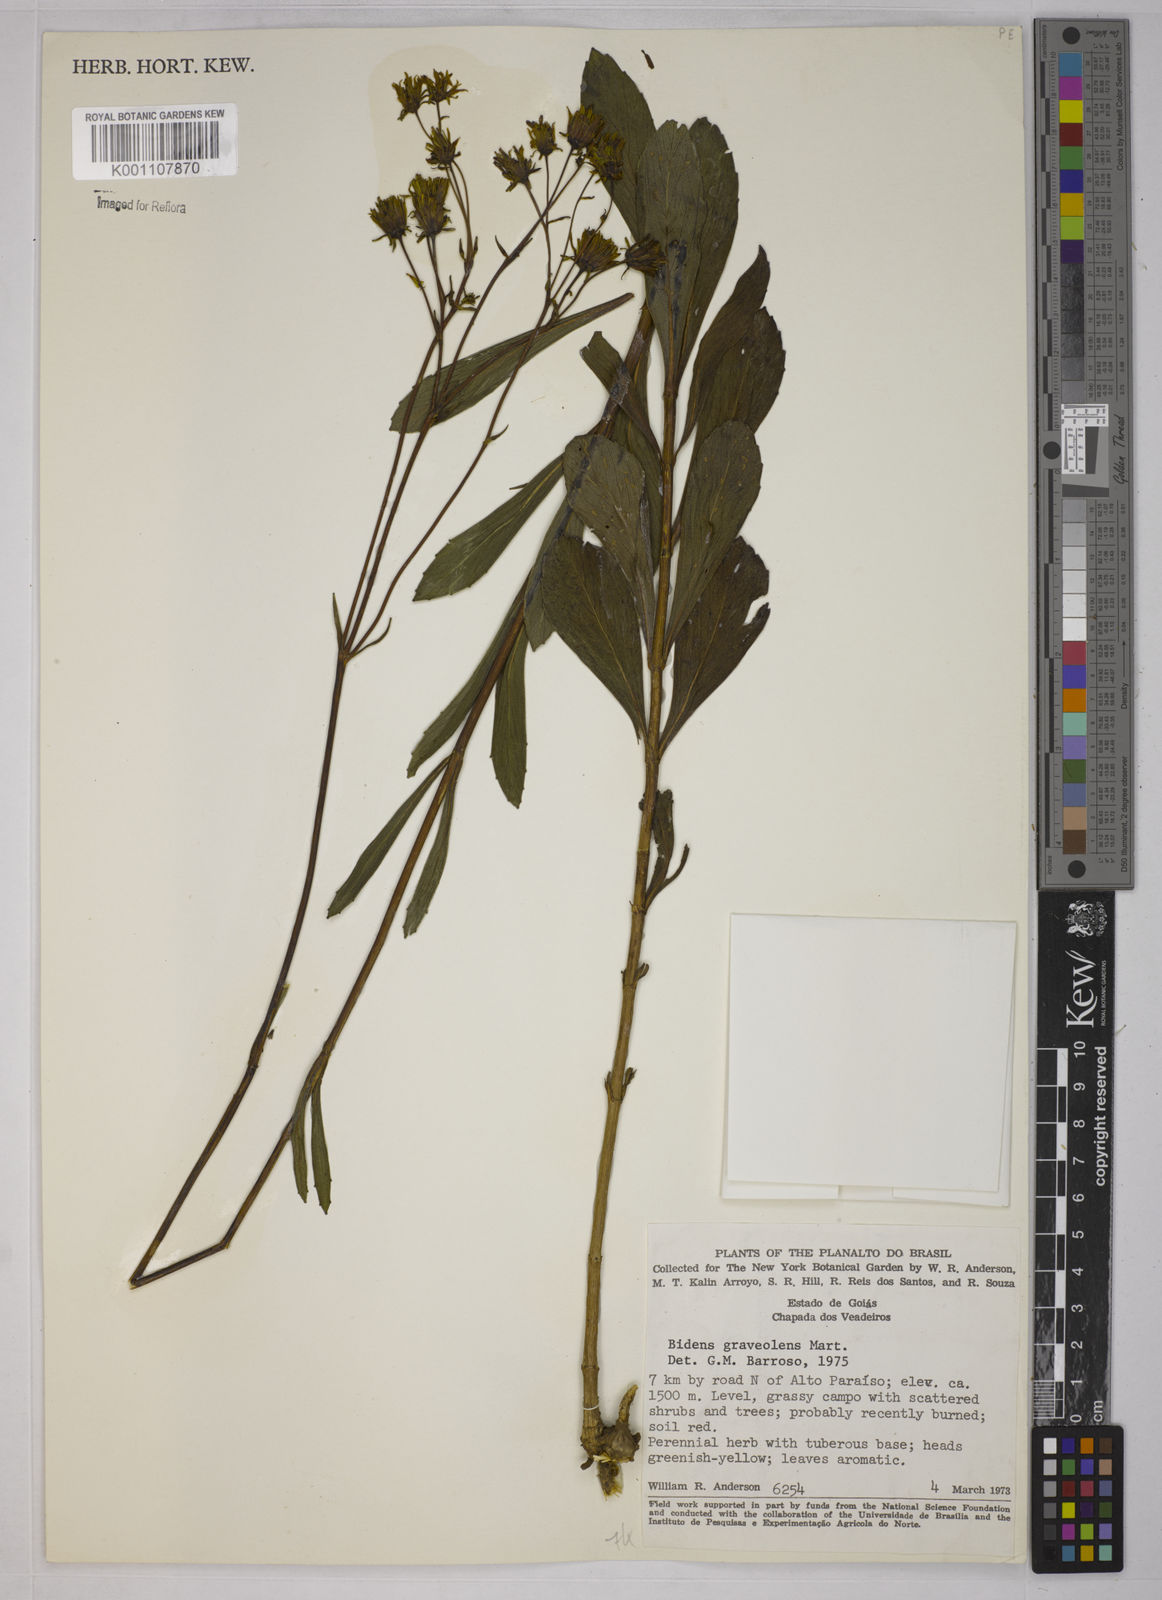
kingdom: Plantae
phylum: Tracheophyta
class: Magnoliopsida
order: Asterales
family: Asteraceae
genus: Bidens
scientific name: Bidens
